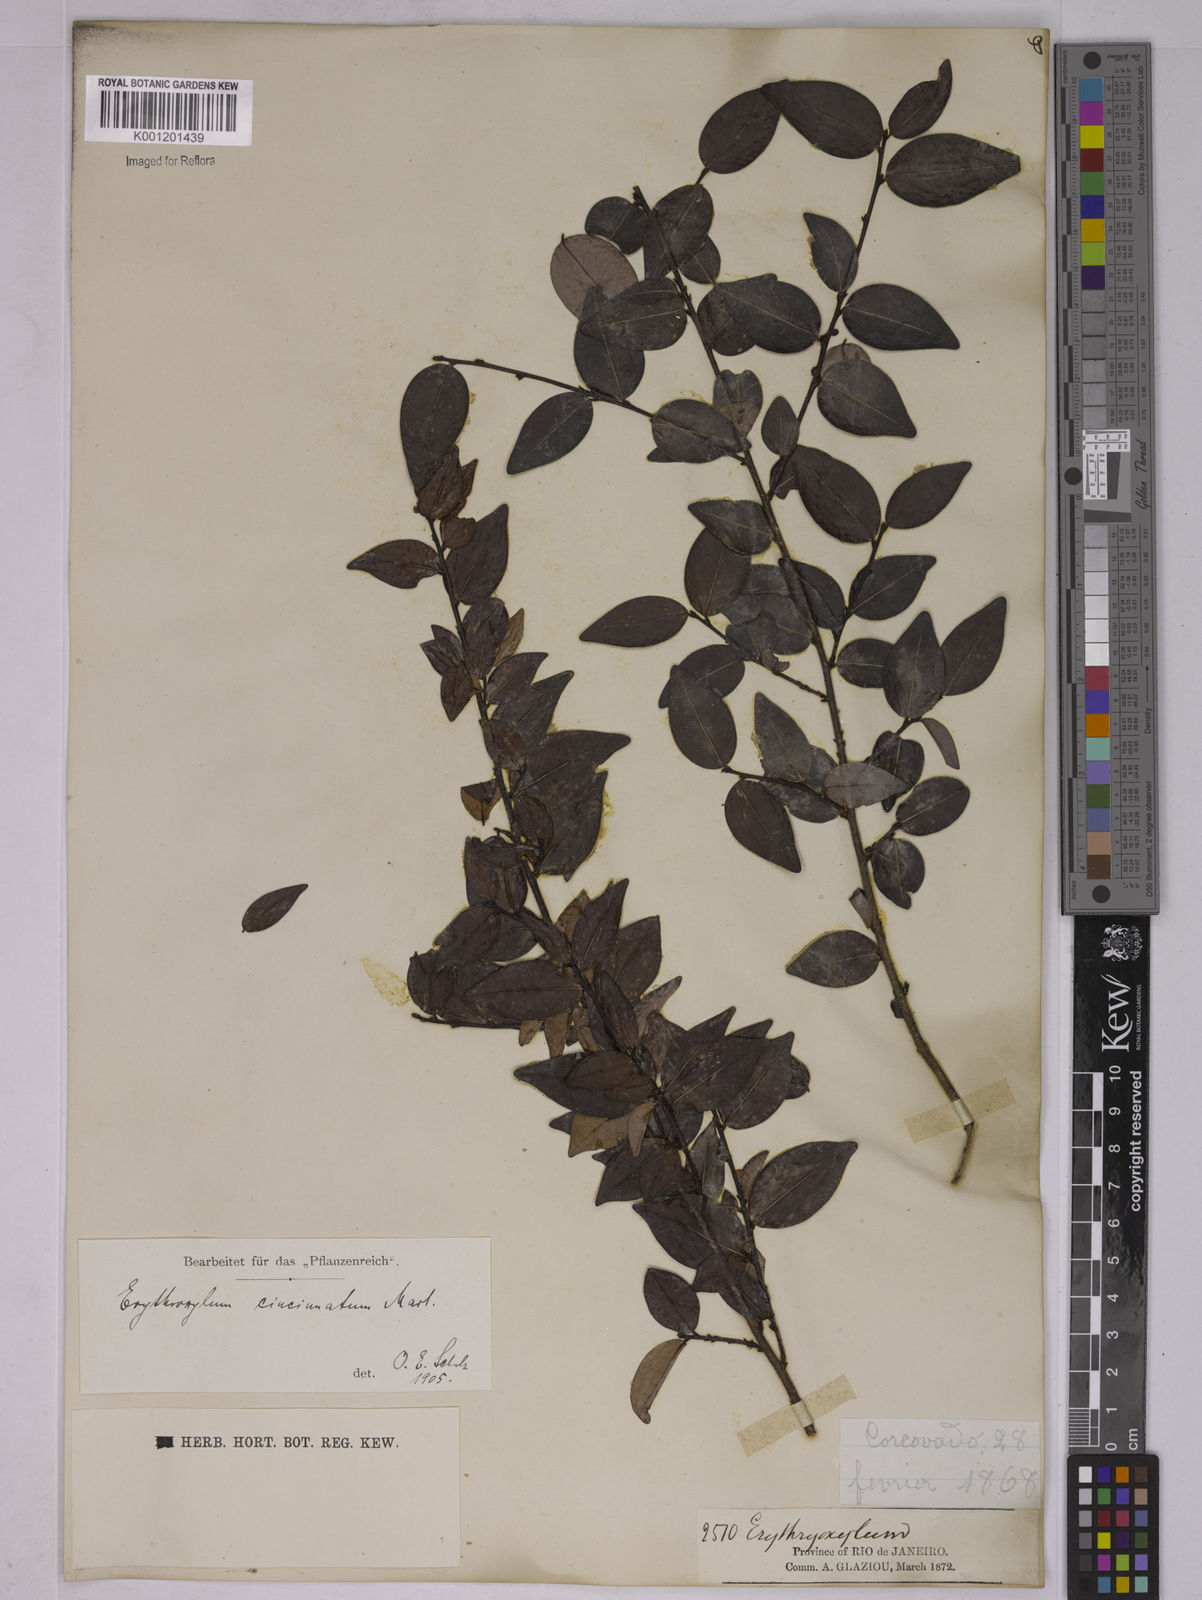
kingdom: Plantae
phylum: Tracheophyta
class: Magnoliopsida
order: Malpighiales
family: Erythroxylaceae
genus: Erythroxylum
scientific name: Erythroxylum cincinnatum
